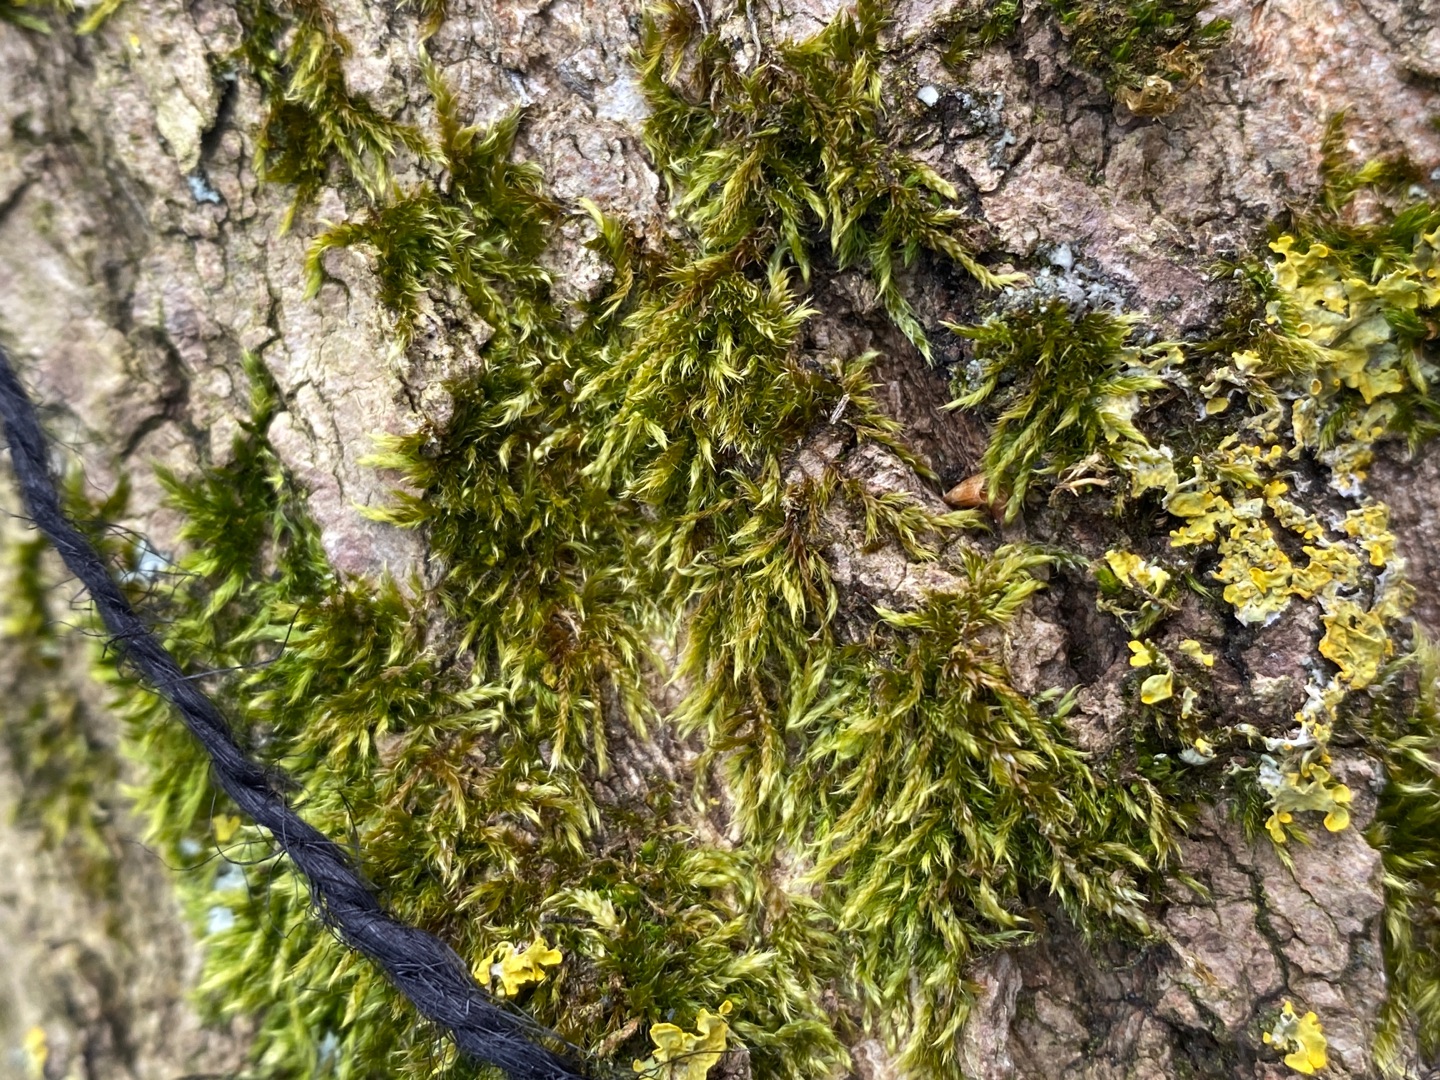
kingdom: Plantae
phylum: Bryophyta
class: Bryopsida
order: Hypnales
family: Hypnaceae
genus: Hypnum
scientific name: Hypnum cupressiforme
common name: Almindelig cypresmos
